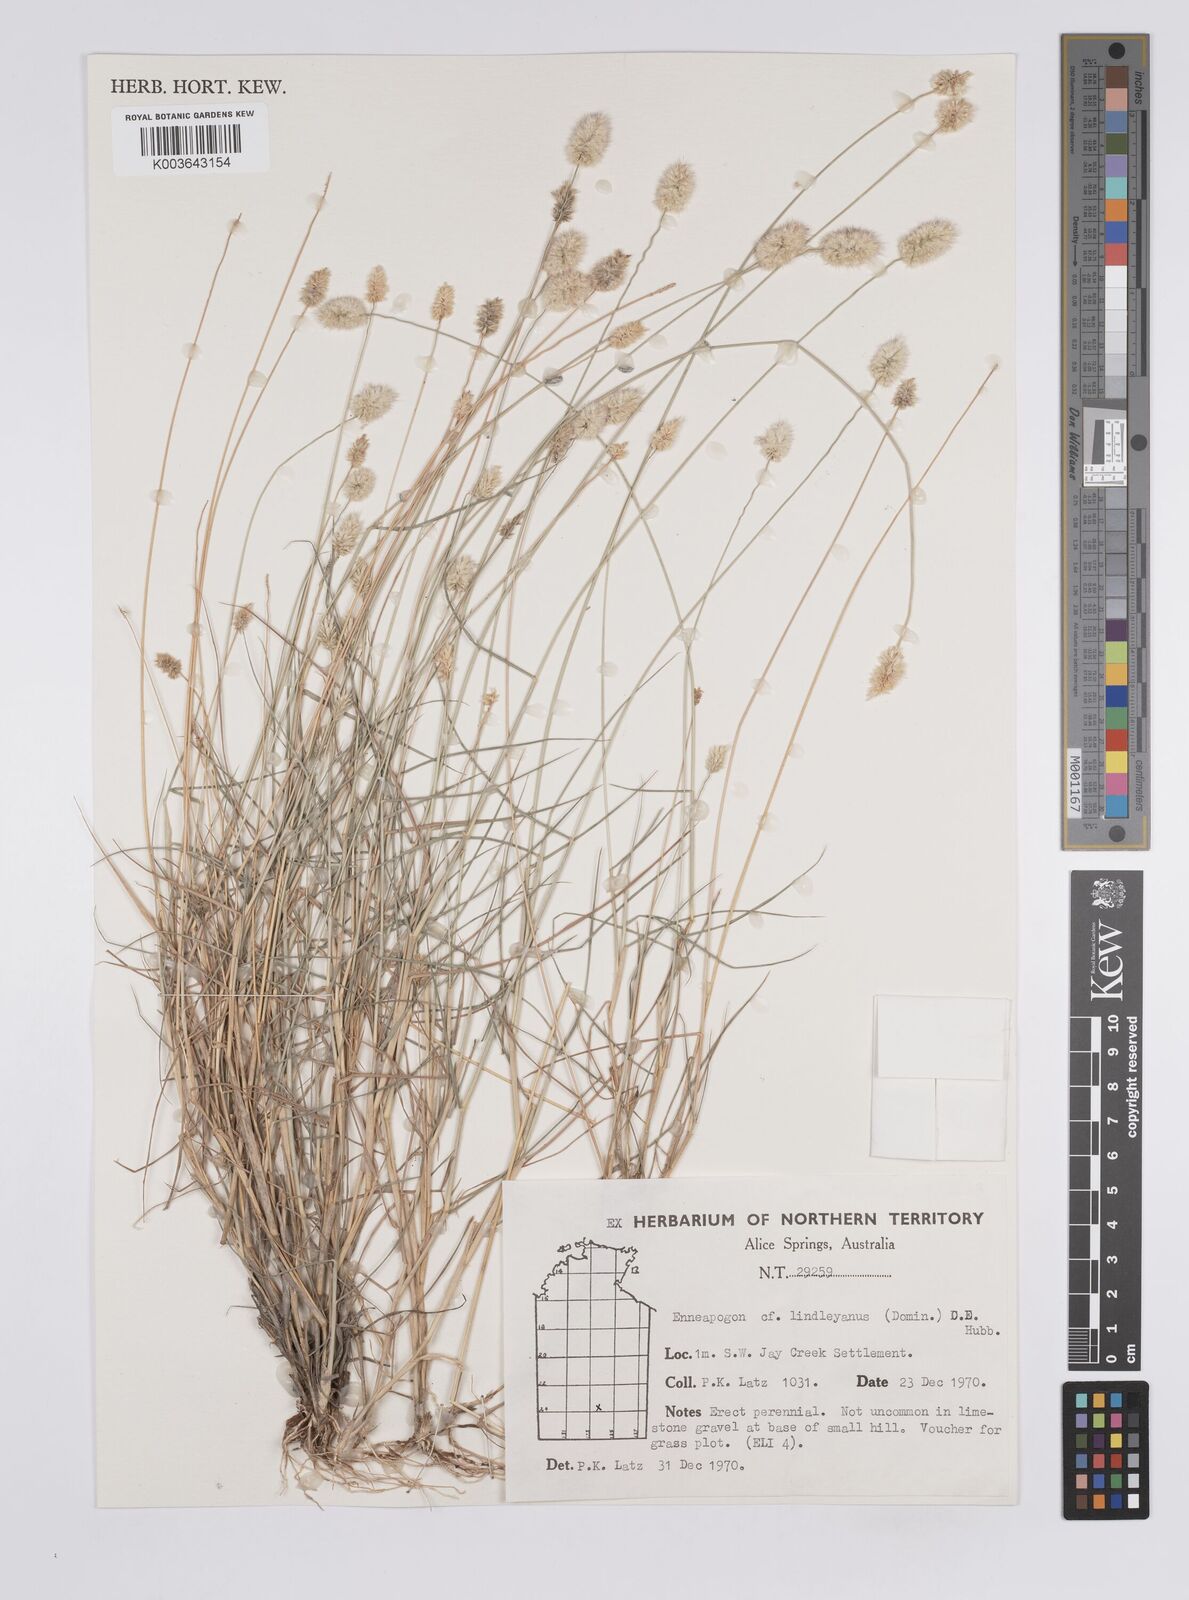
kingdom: Plantae
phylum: Tracheophyta
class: Liliopsida
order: Poales
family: Poaceae
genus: Enneapogon
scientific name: Enneapogon lindleyanus
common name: Conetop nineawn
